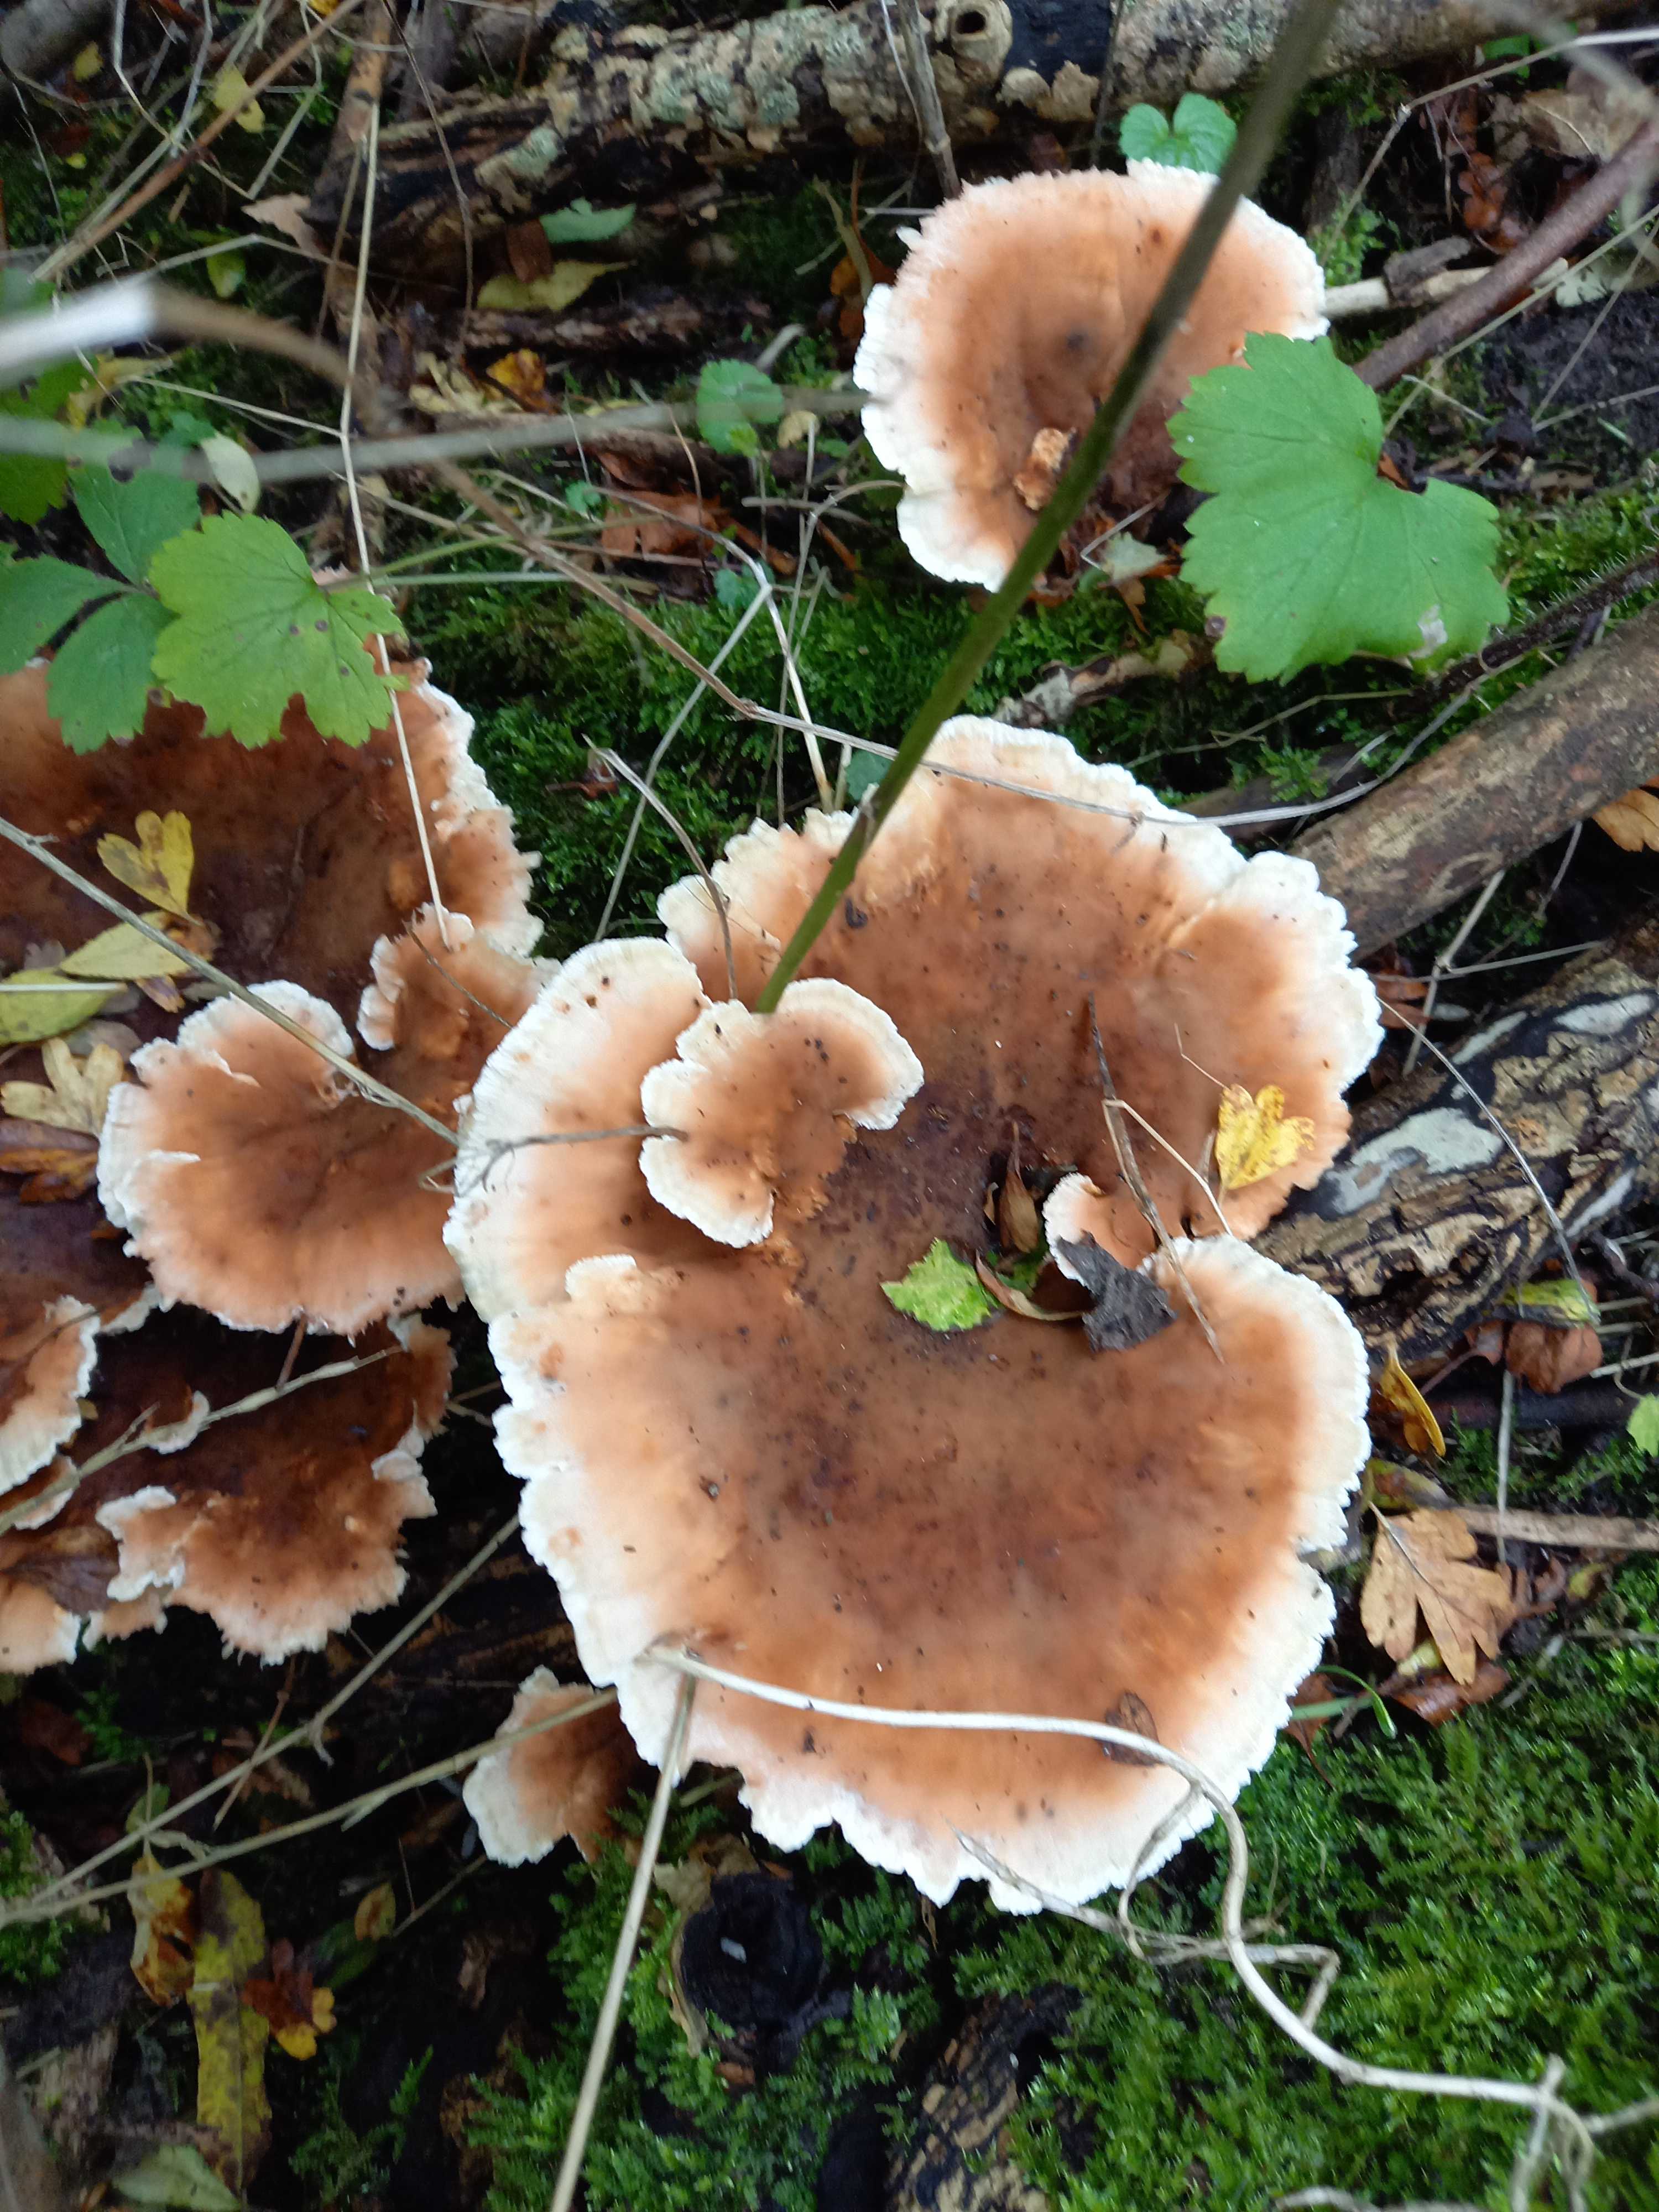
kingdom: Fungi
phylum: Basidiomycota
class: Agaricomycetes
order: Polyporales
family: Podoscyphaceae
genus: Abortiporus
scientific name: Abortiporus biennis
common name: rødmende pjalteporesvamp
